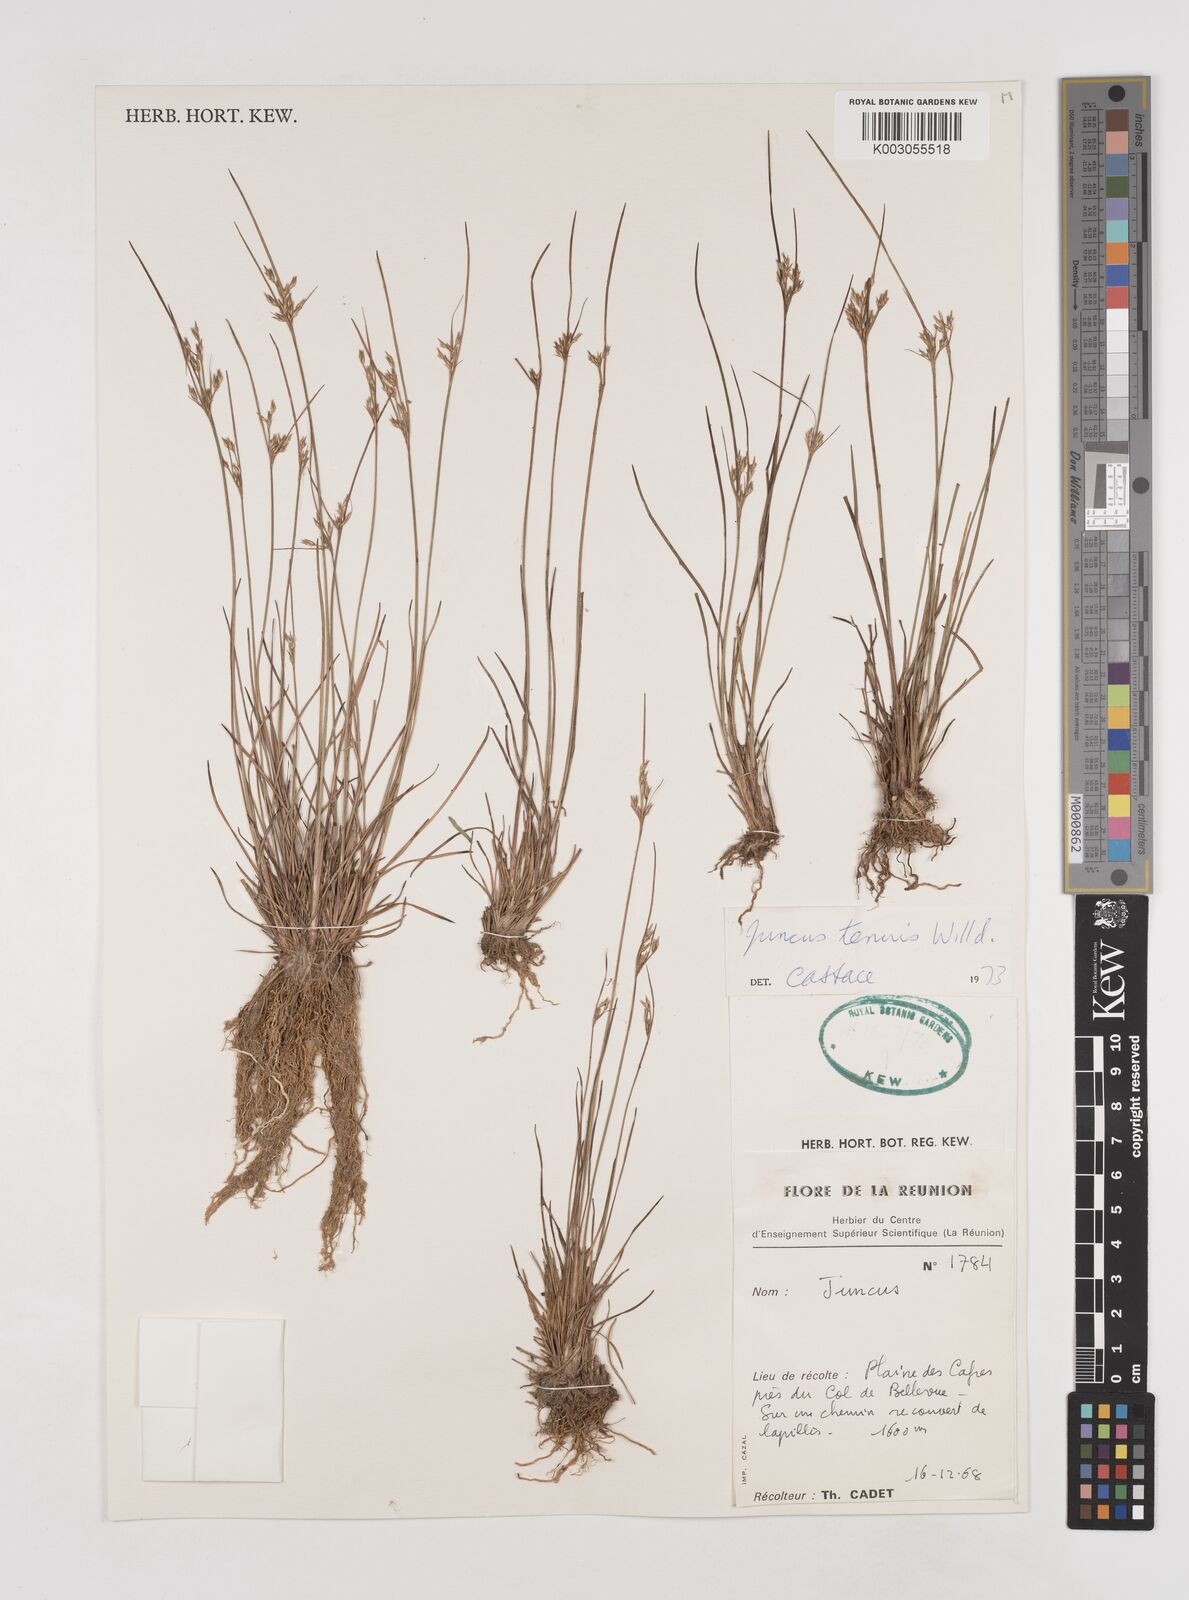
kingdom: Plantae
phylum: Tracheophyta
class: Liliopsida
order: Poales
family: Juncaceae
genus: Juncus
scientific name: Juncus tenuis
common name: Slender rush
